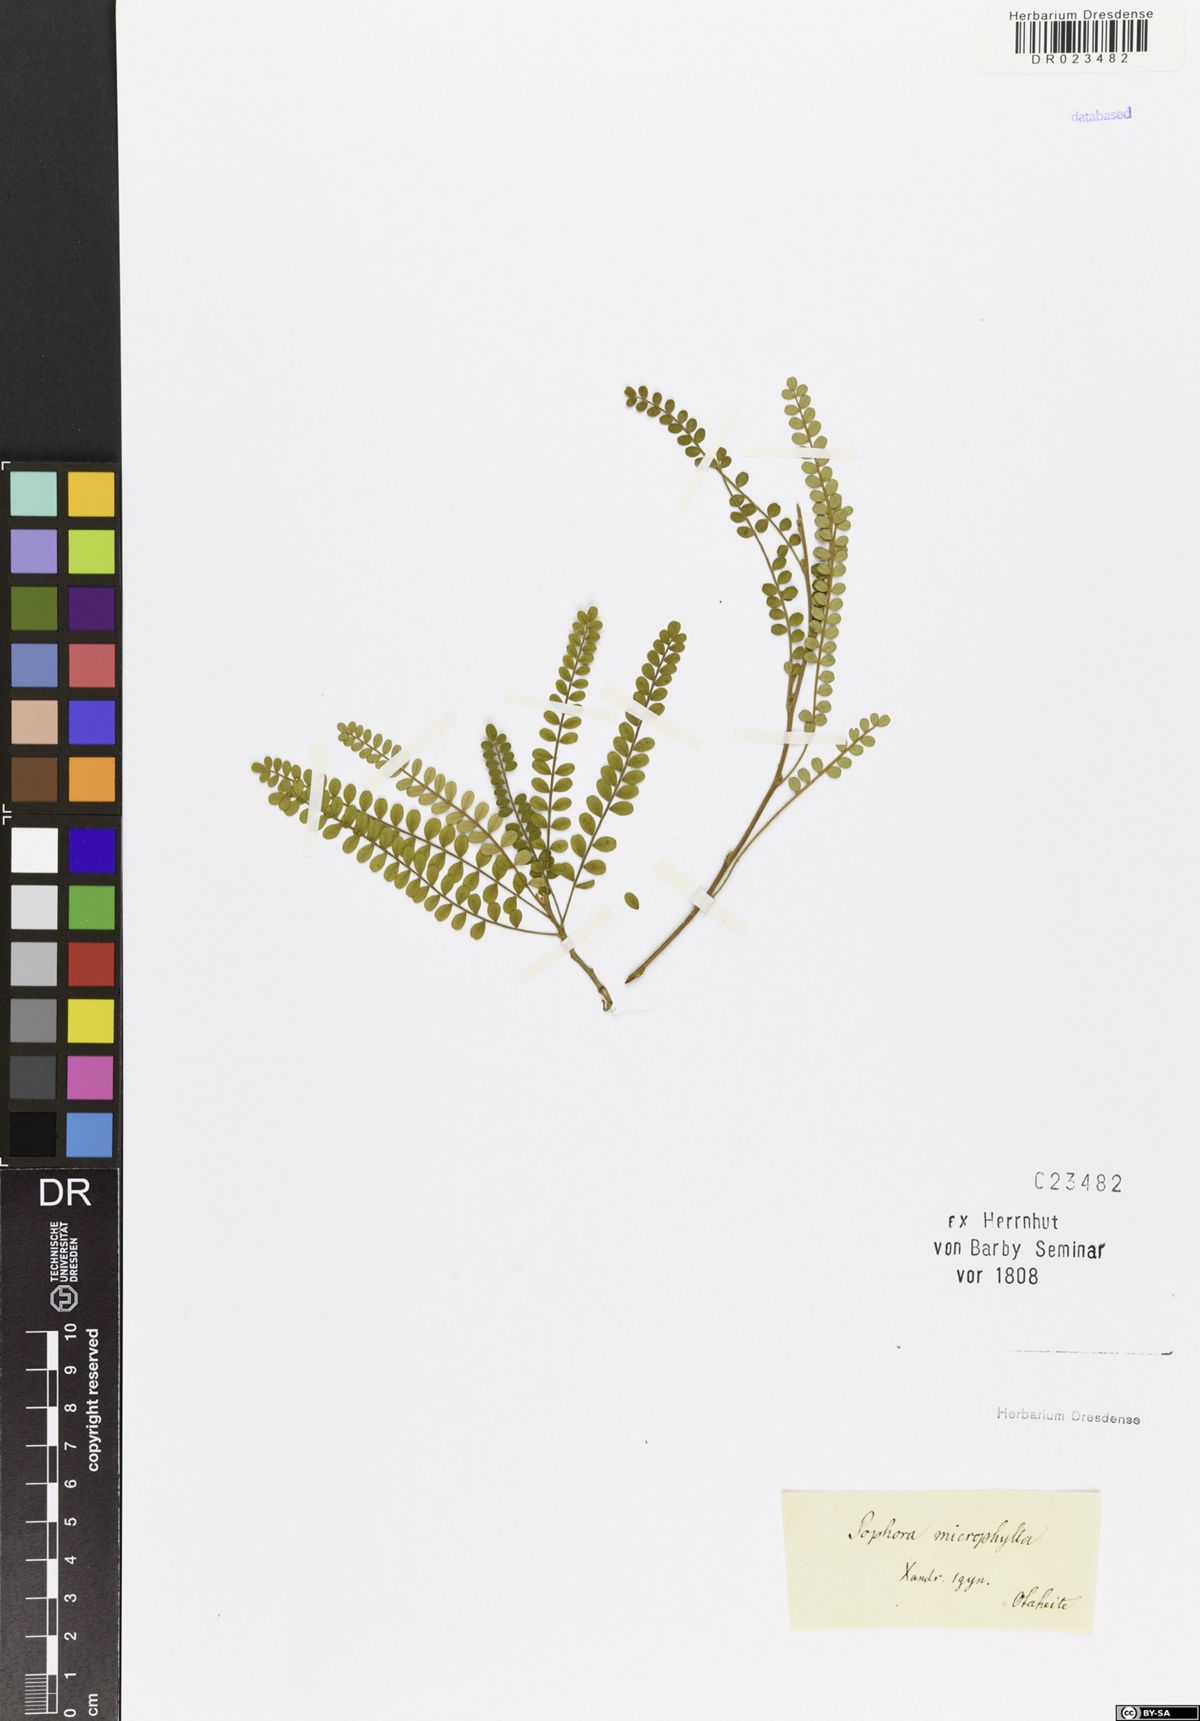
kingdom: Plantae
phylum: Tracheophyta
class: Magnoliopsida
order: Fabales
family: Fabaceae
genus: Sophora
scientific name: Sophora microphylla
